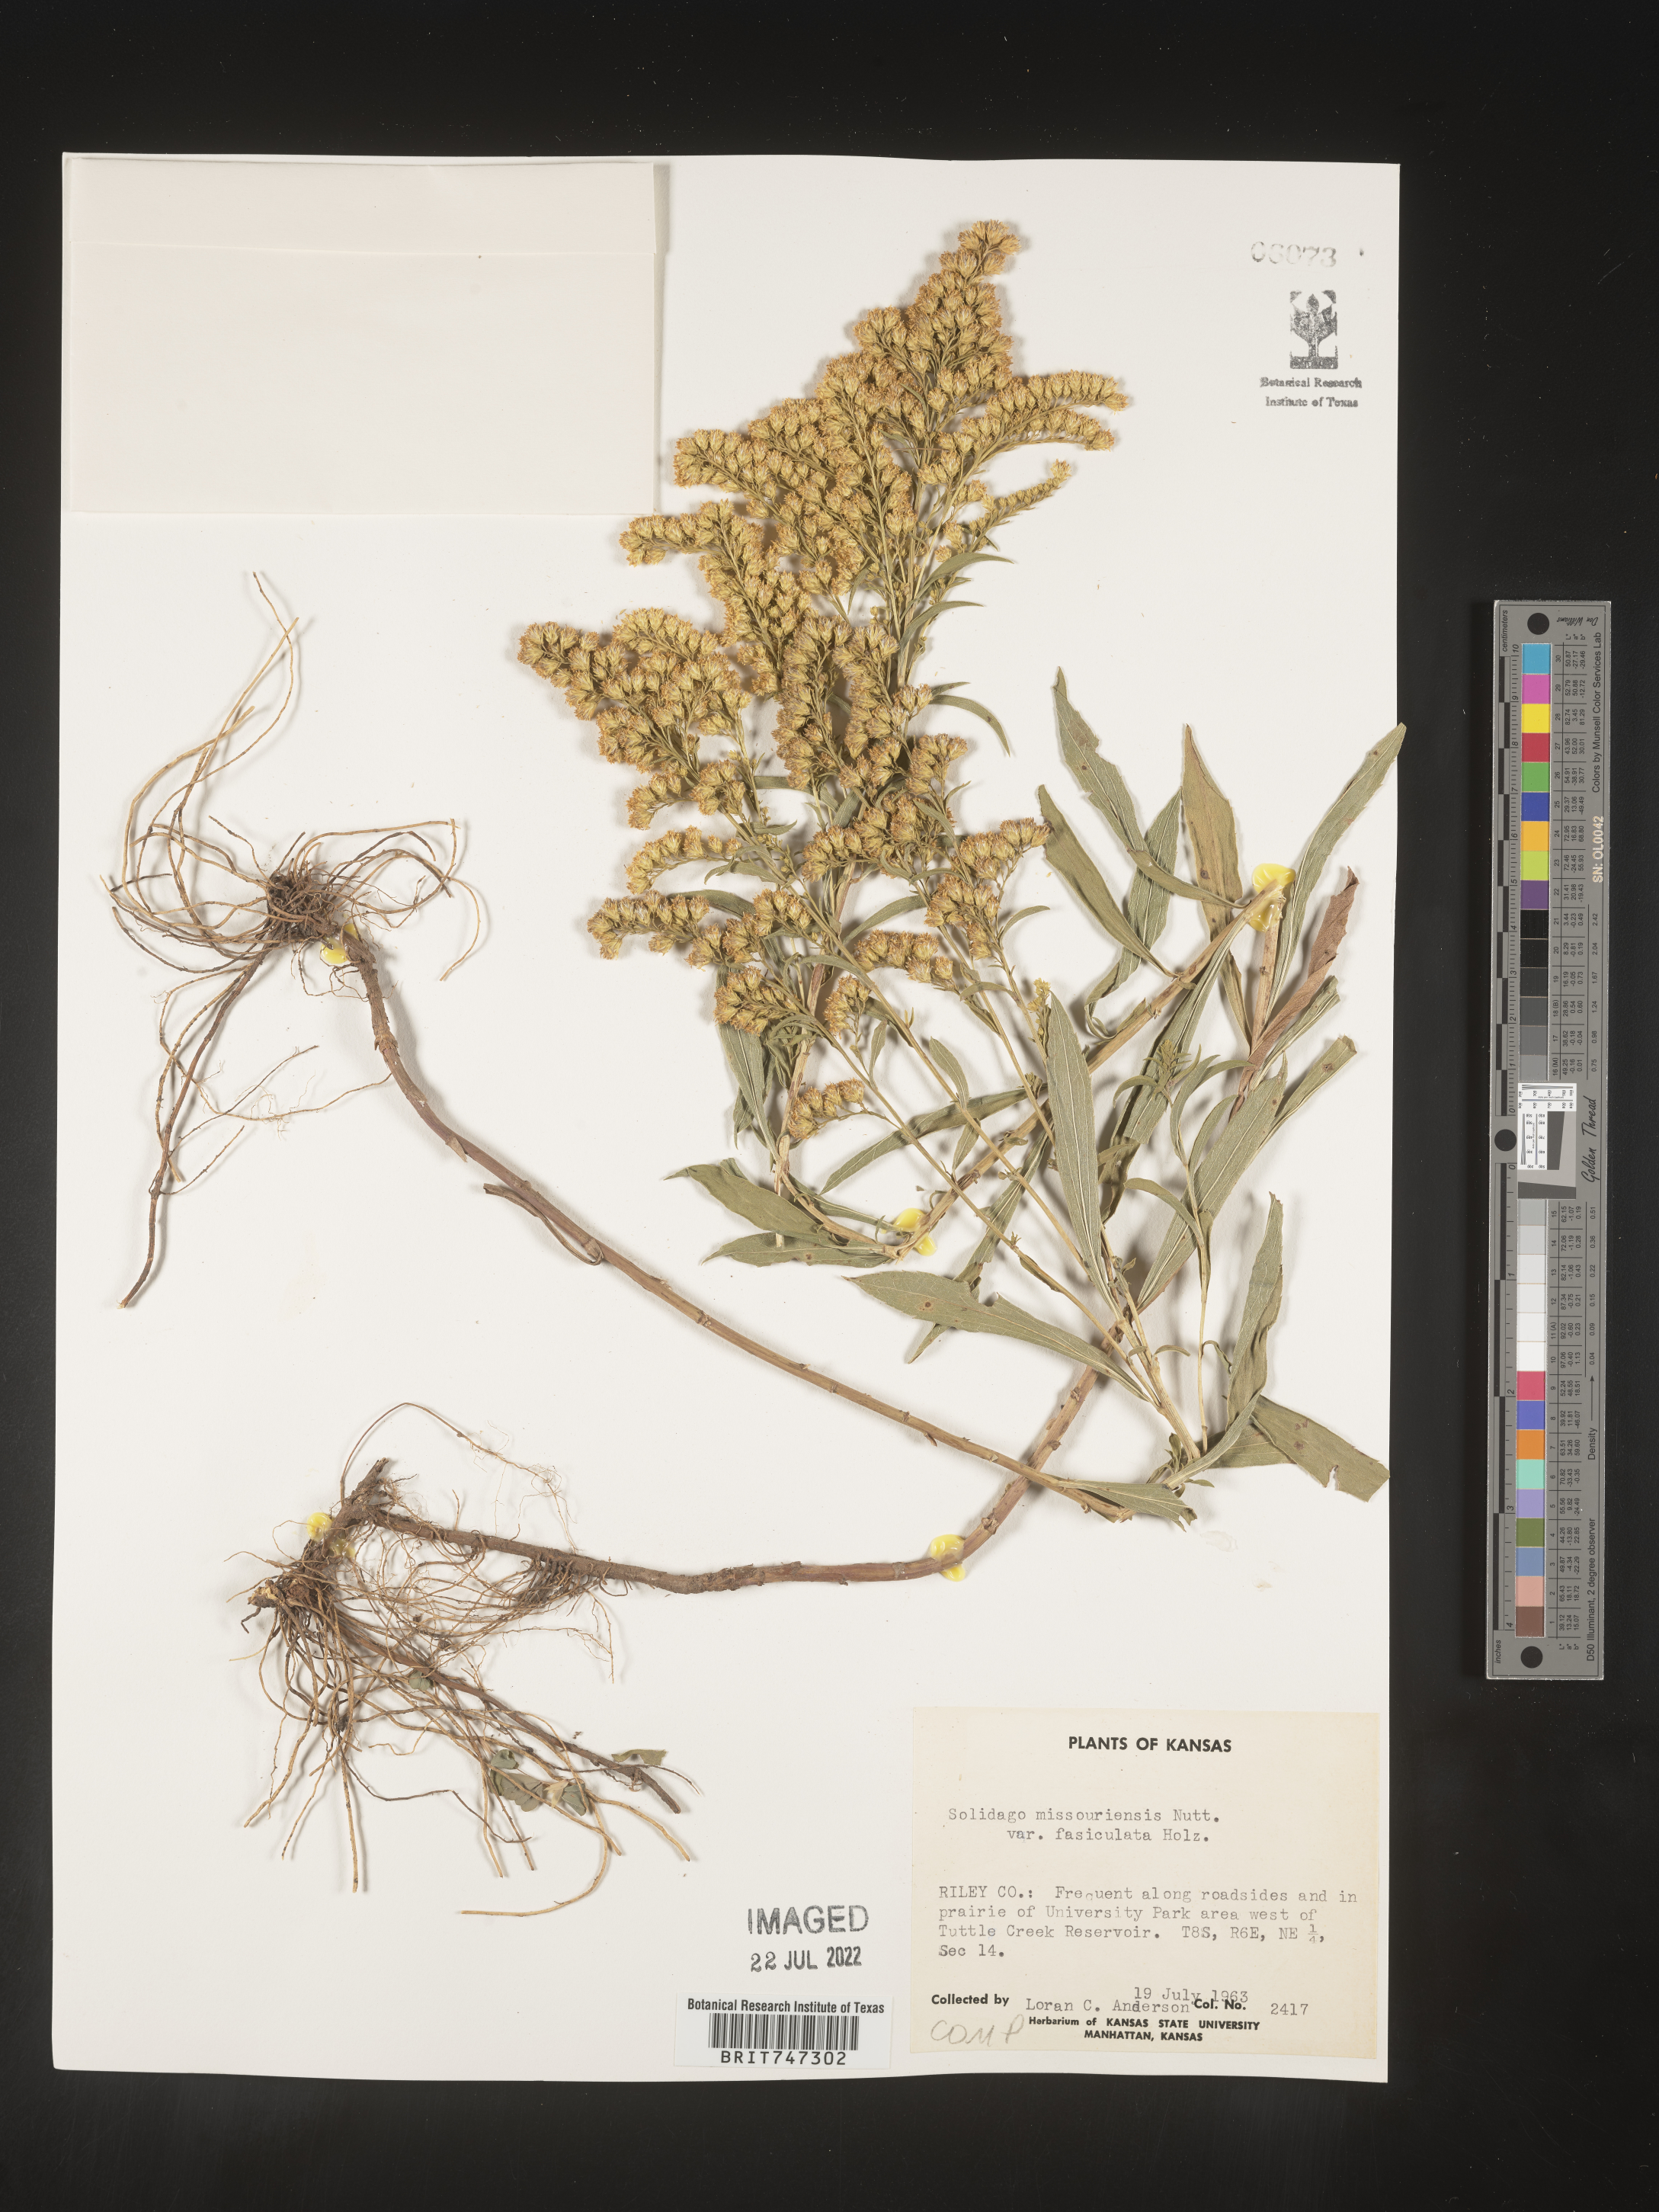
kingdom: Plantae
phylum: Tracheophyta
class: Magnoliopsida
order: Asterales
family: Asteraceae
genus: Solidago
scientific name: Solidago missouriensis
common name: Prairie goldenrod
